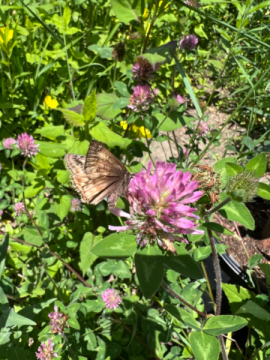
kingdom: Animalia
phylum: Arthropoda
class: Insecta
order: Lepidoptera
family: Hesperiidae
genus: Gesta
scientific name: Gesta
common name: Juvenal's Duskywing
